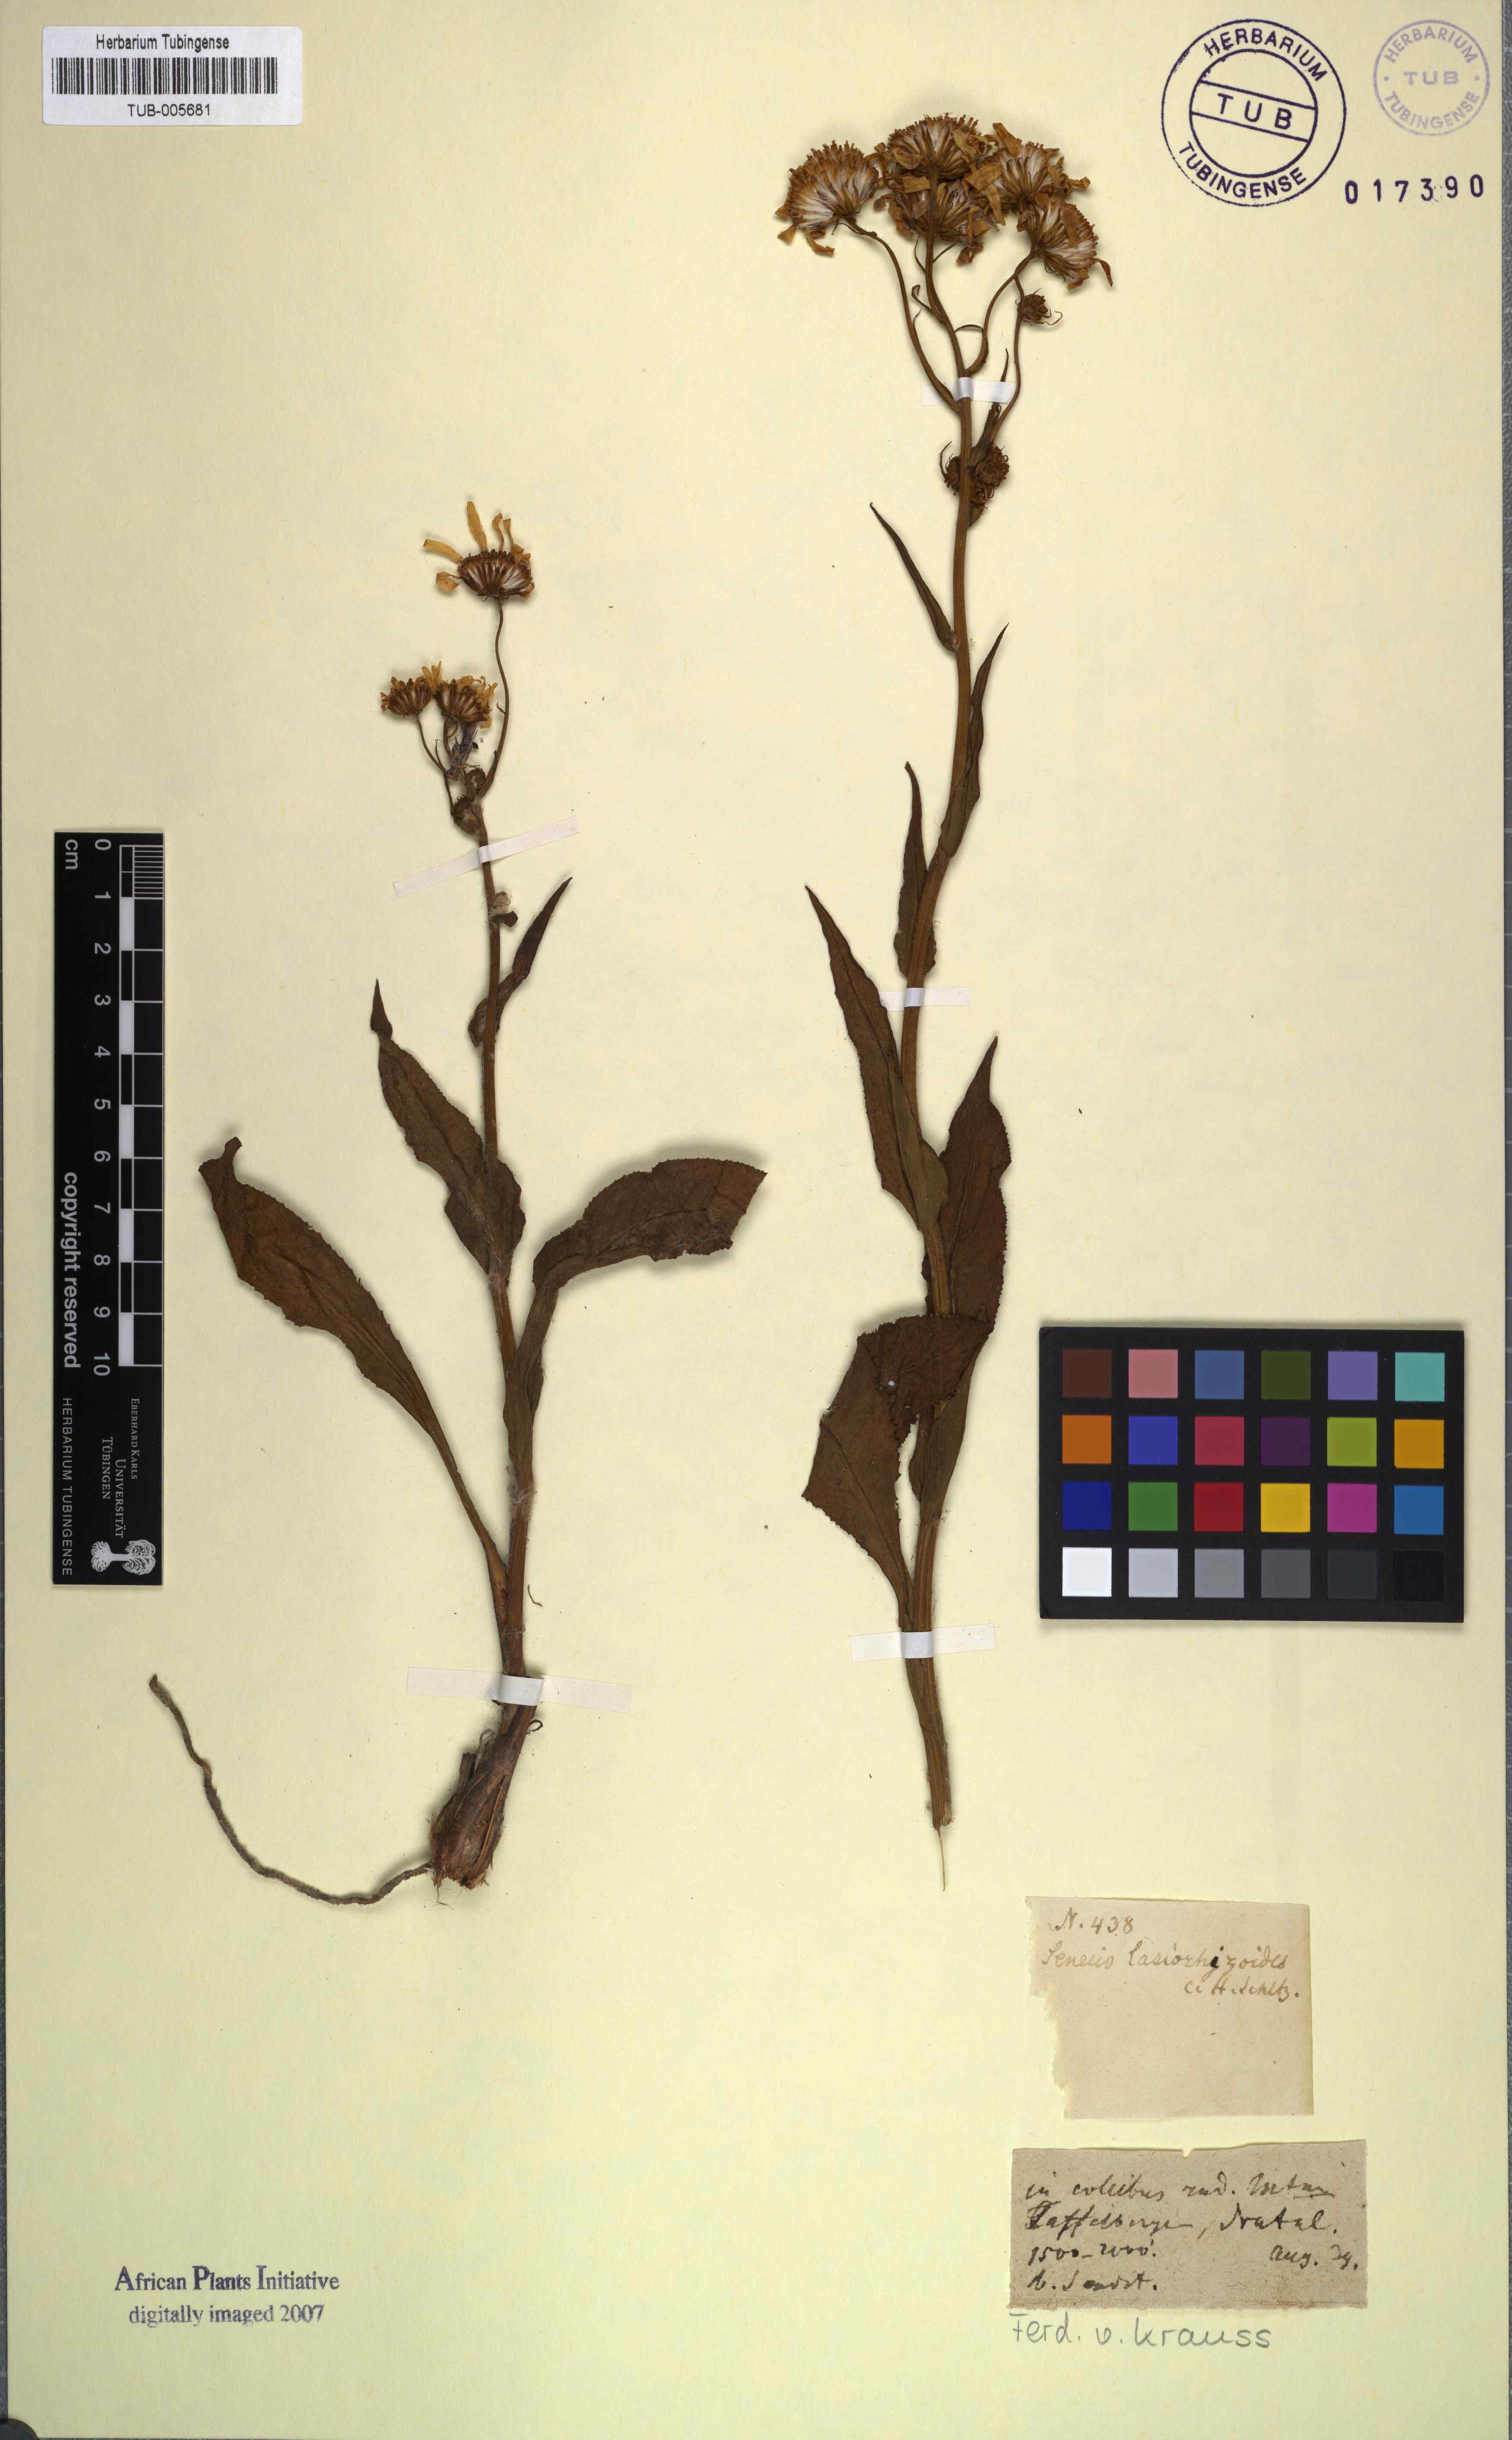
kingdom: Plantae
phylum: Tracheophyta
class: Magnoliopsida
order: Asterales
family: Asteraceae
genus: Senecio
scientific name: Senecio coronatus
